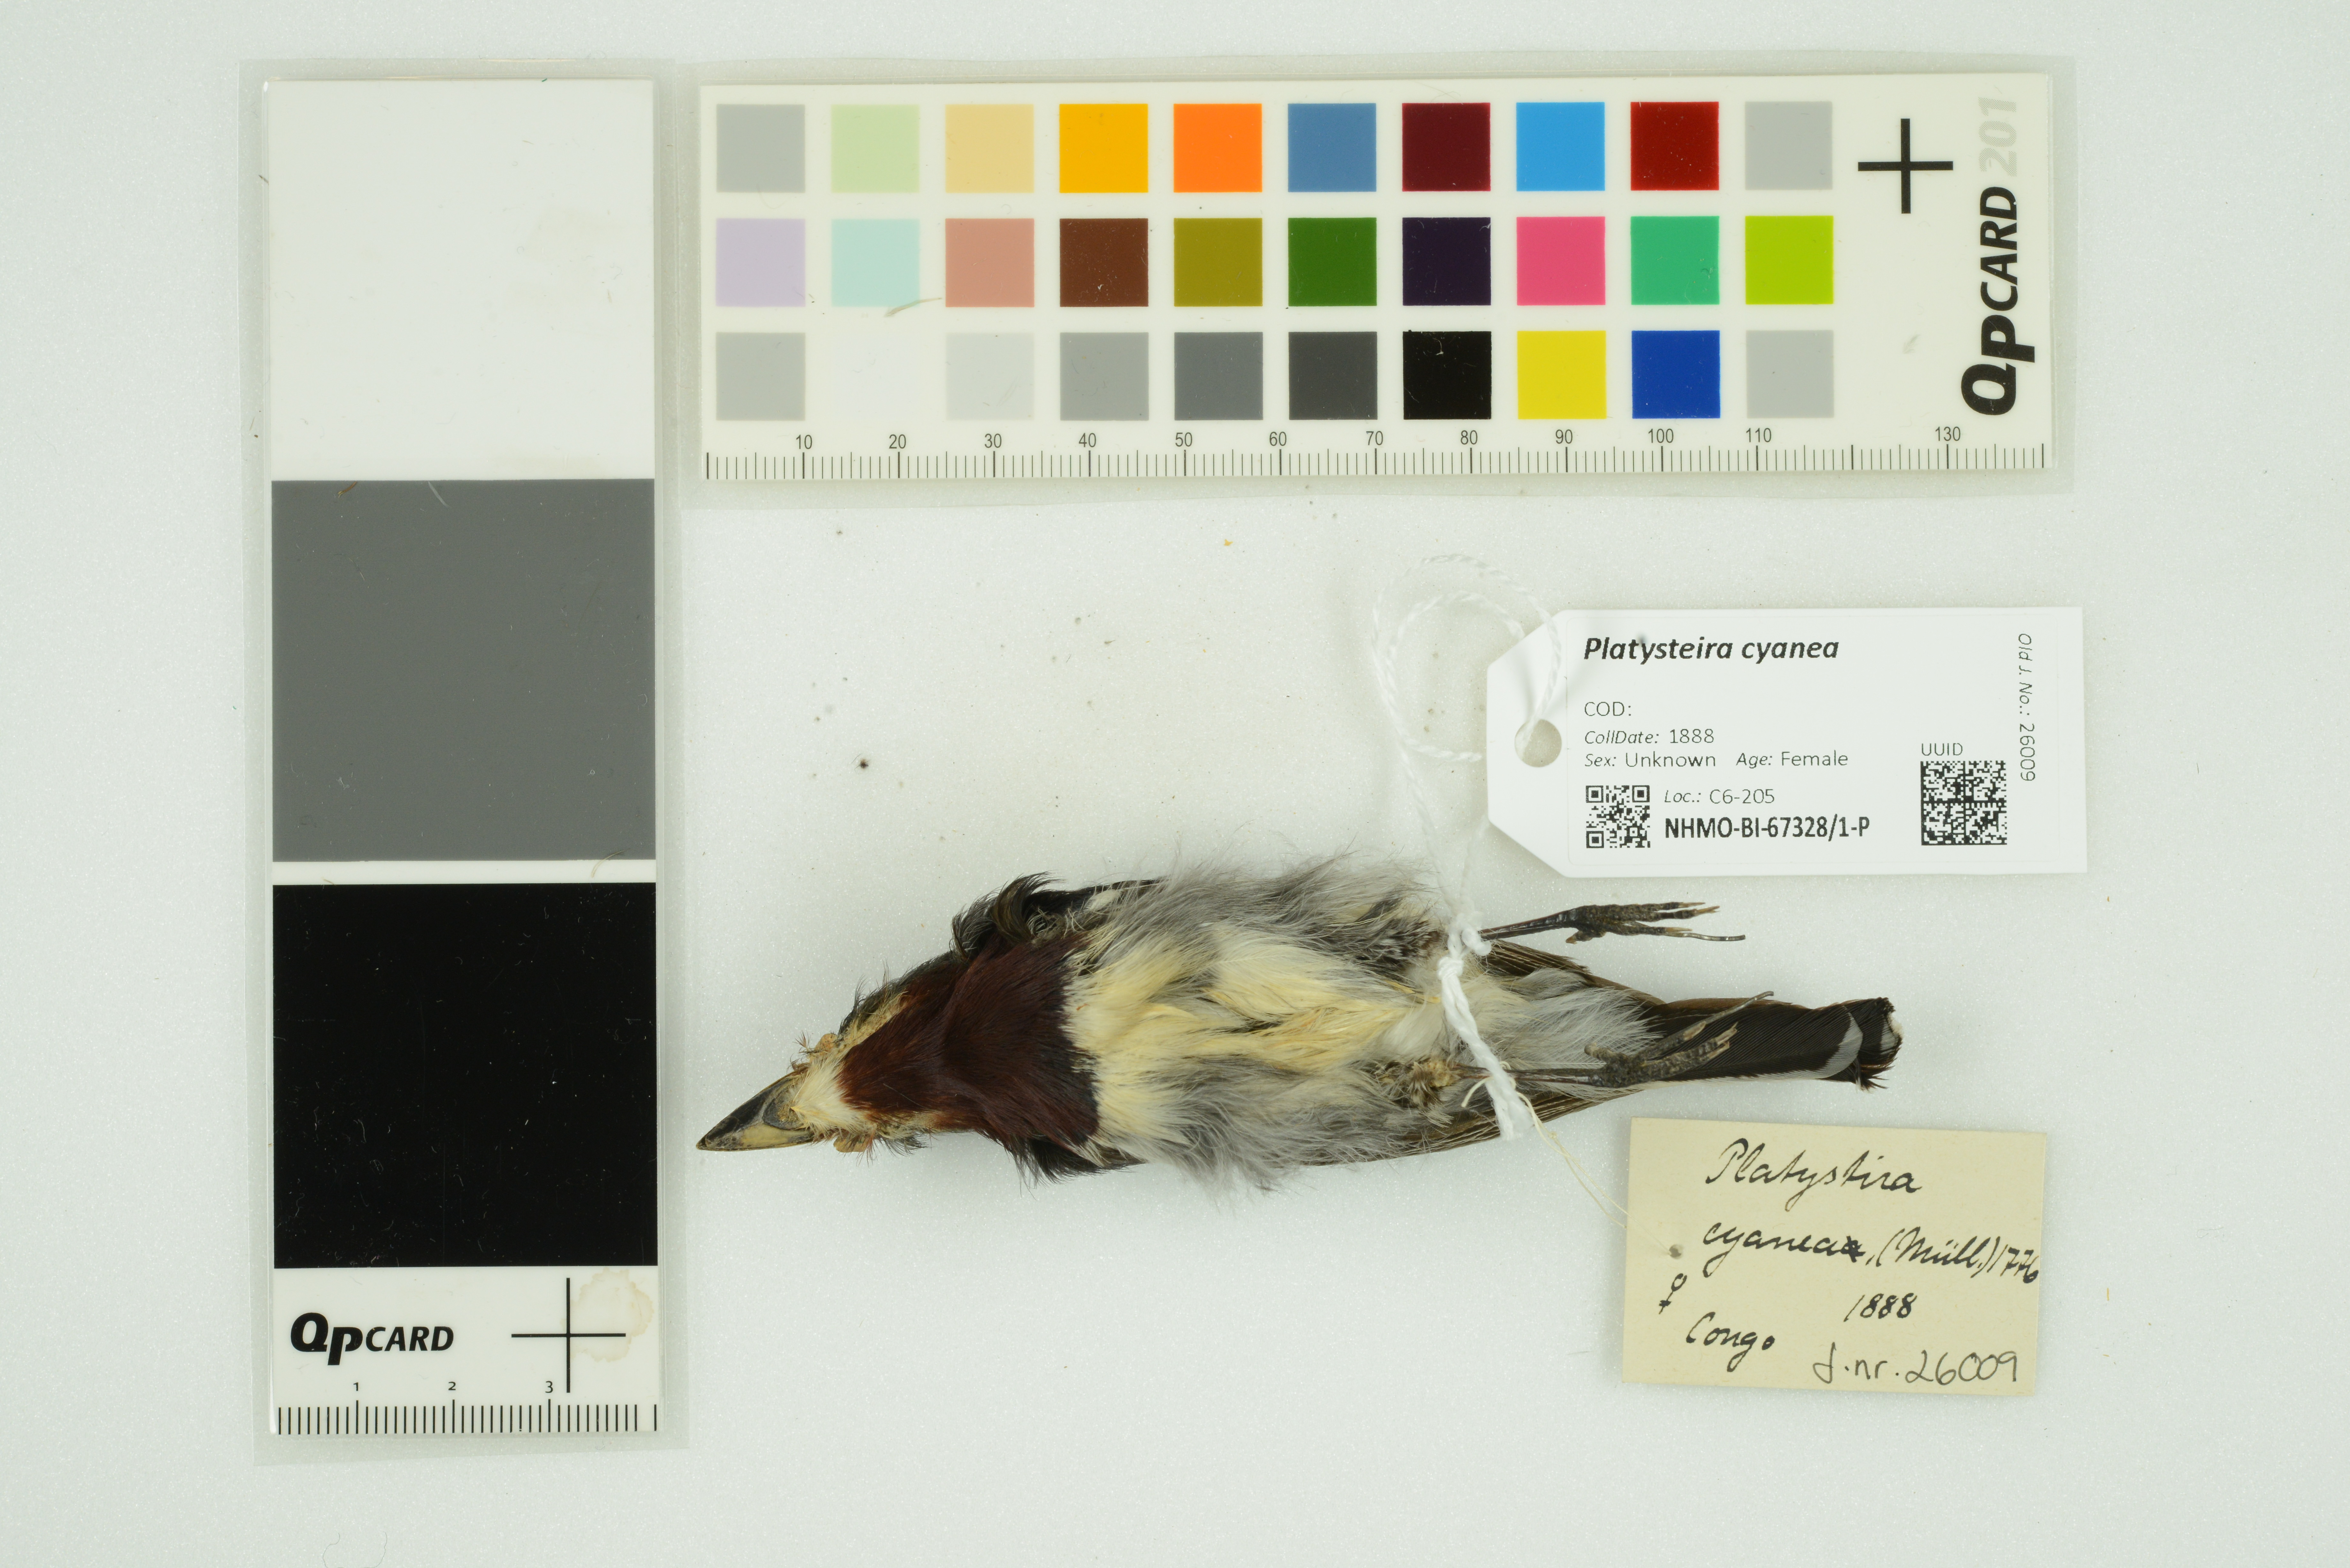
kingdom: Animalia
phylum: Chordata
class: Aves
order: Passeriformes
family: Platysteiridae
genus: Platysteira
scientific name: Platysteira cyanea
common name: Brown-throated wattle-eye
